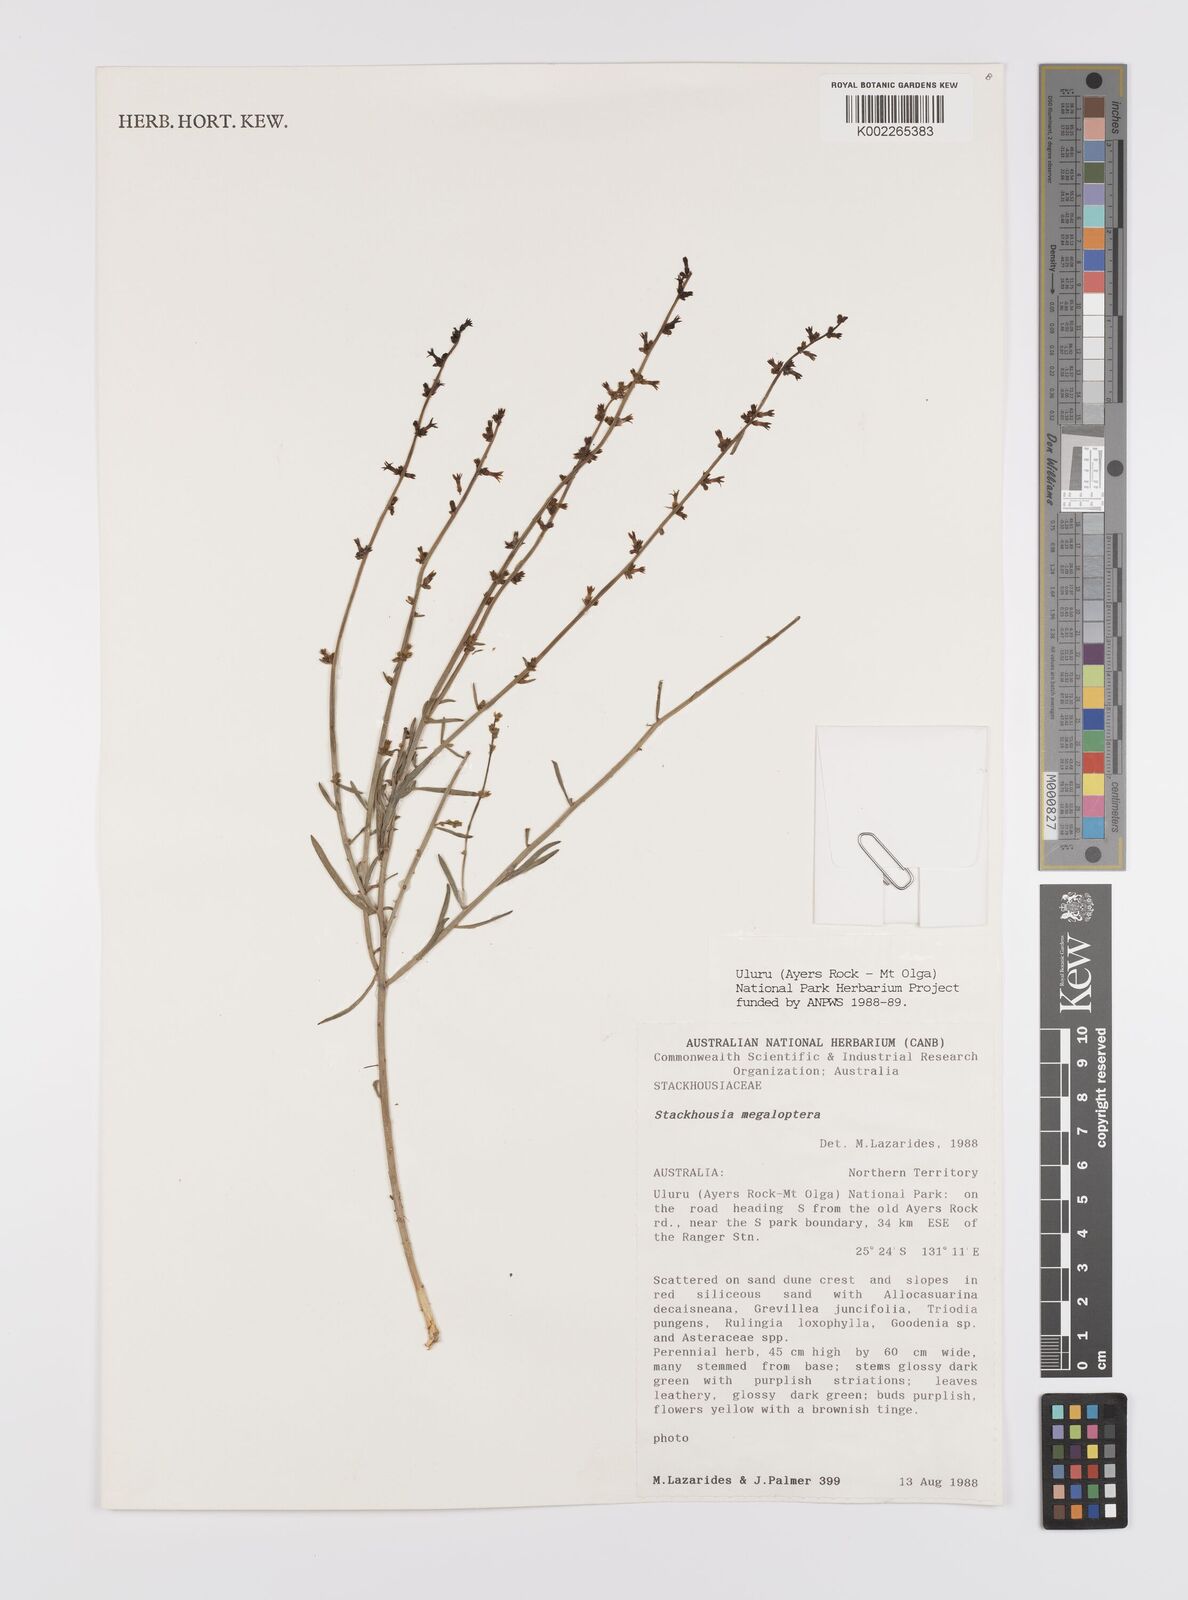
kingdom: Plantae
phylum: Tracheophyta
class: Magnoliopsida
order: Celastrales
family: Celastraceae
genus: Stackhousia
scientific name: Stackhousia megaloptera
